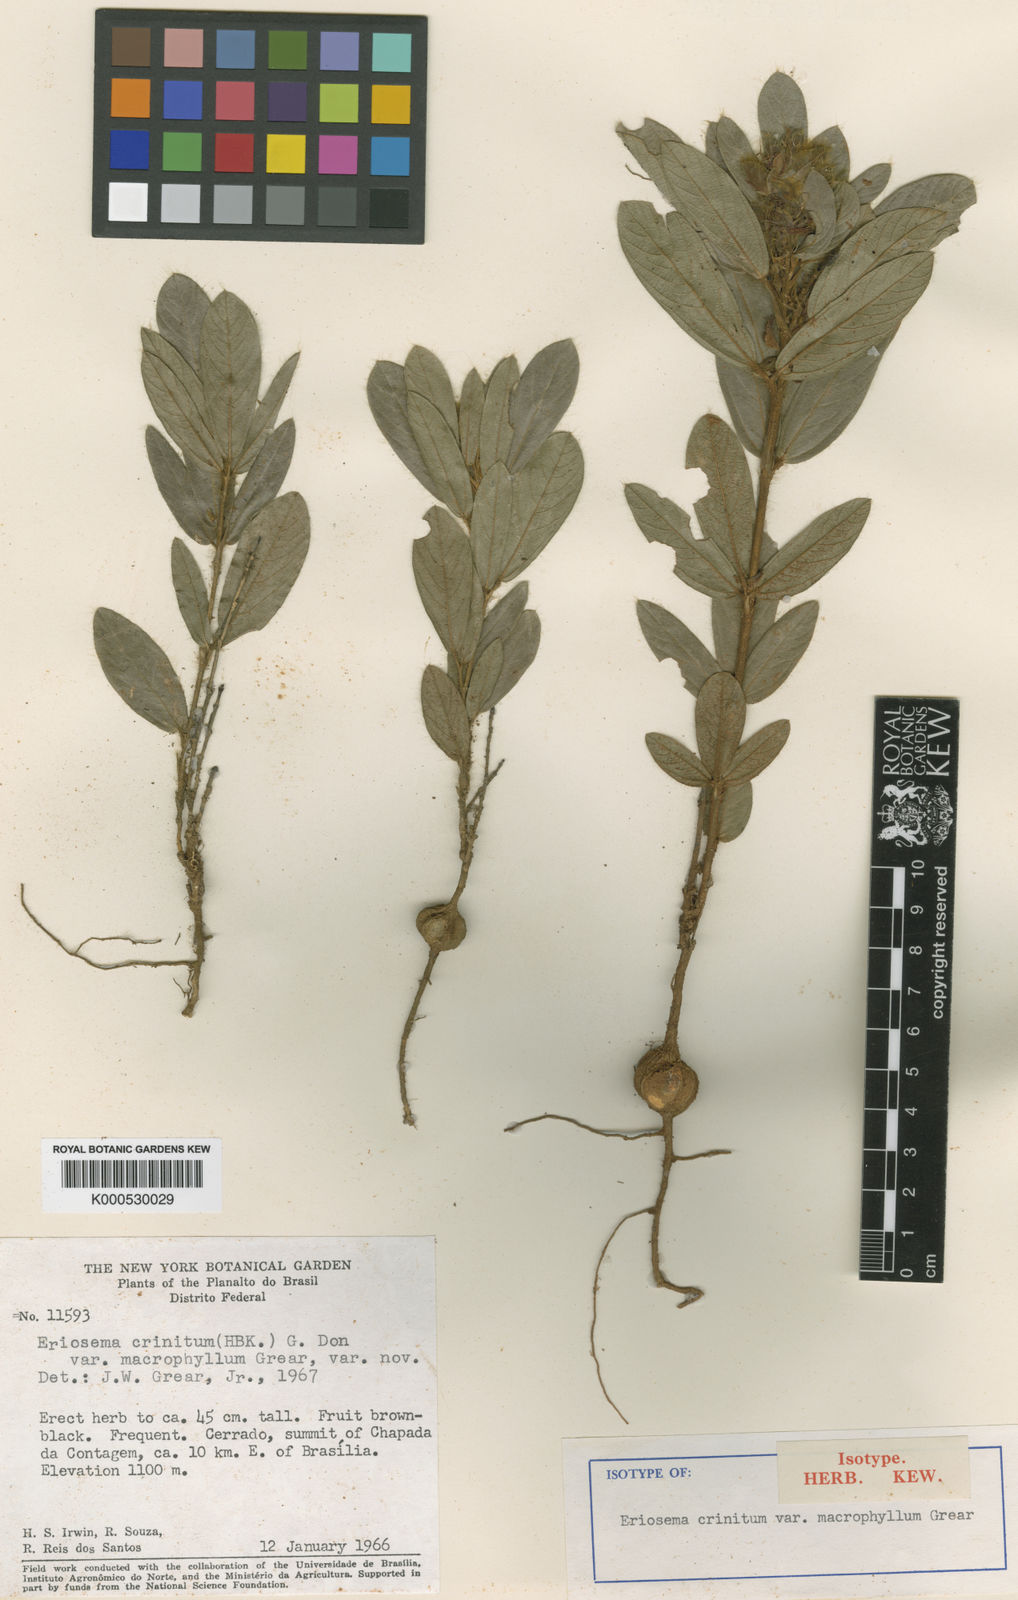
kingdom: Plantae
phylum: Tracheophyta
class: Magnoliopsida
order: Fabales
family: Fabaceae
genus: Eriosema
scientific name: Eriosema campestre
